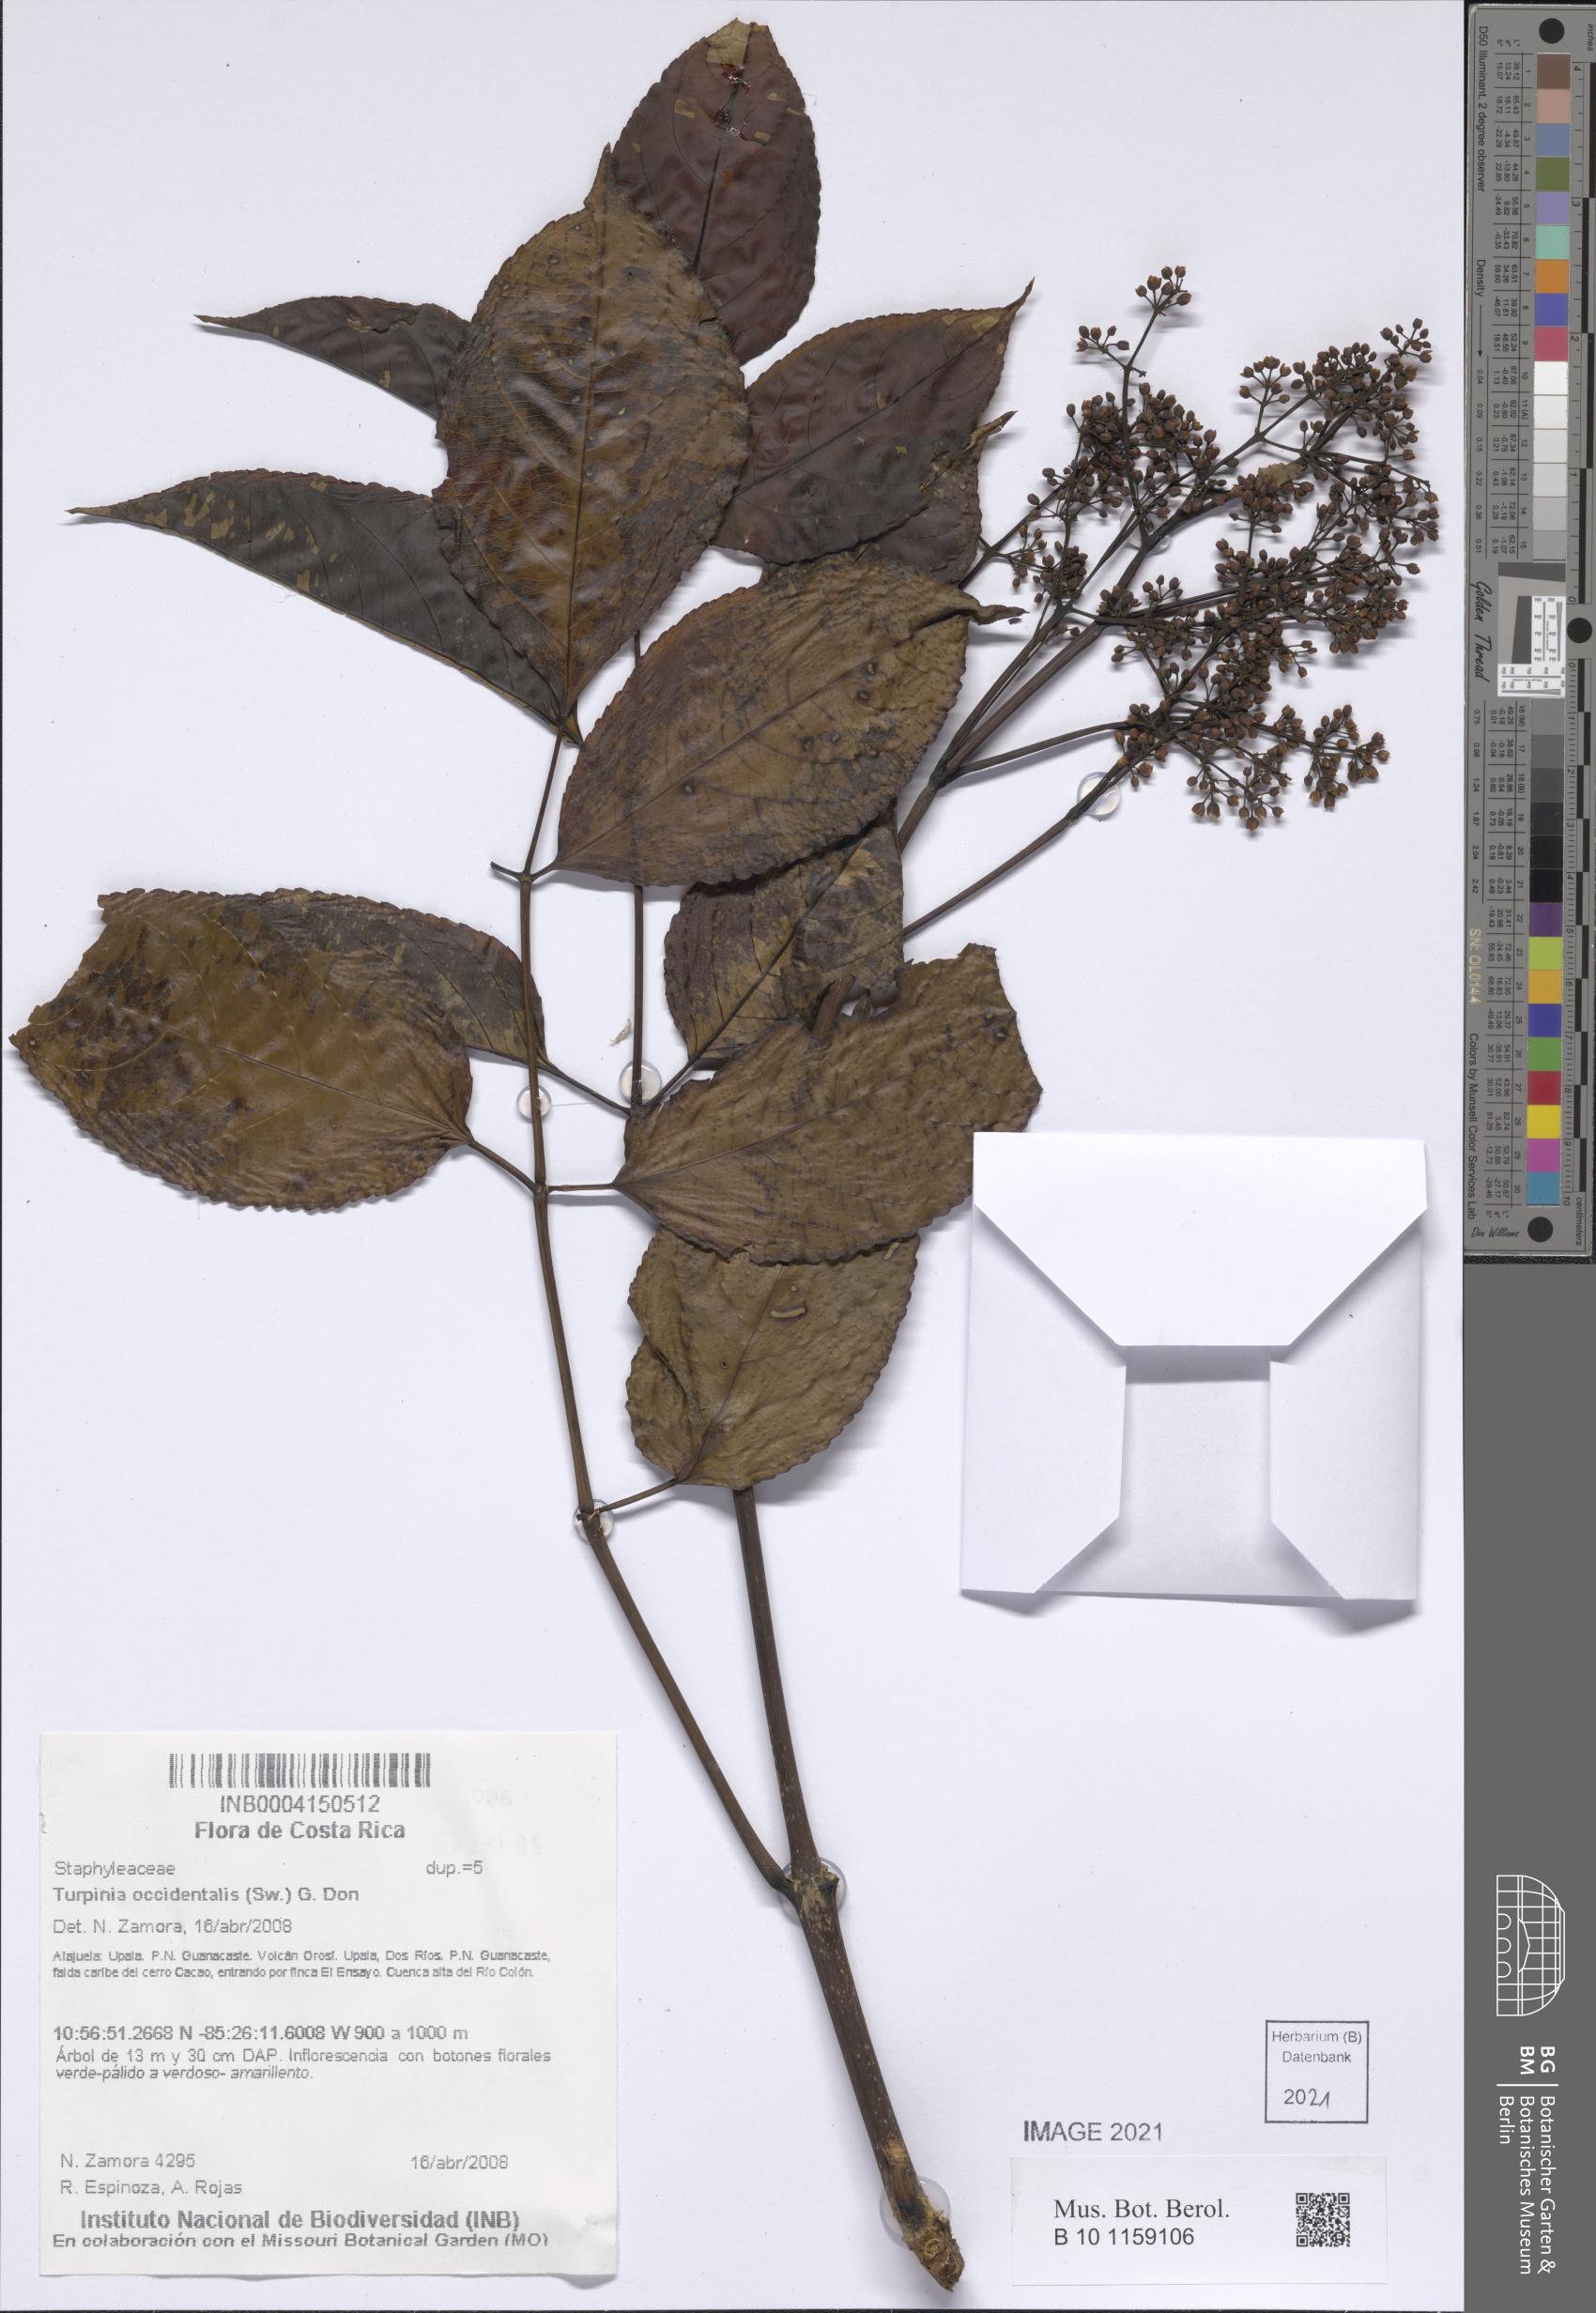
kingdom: Plantae
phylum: Tracheophyta
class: Magnoliopsida
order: Crossosomatales
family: Staphyleaceae
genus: Turpinia
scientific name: Turpinia occidentalis
